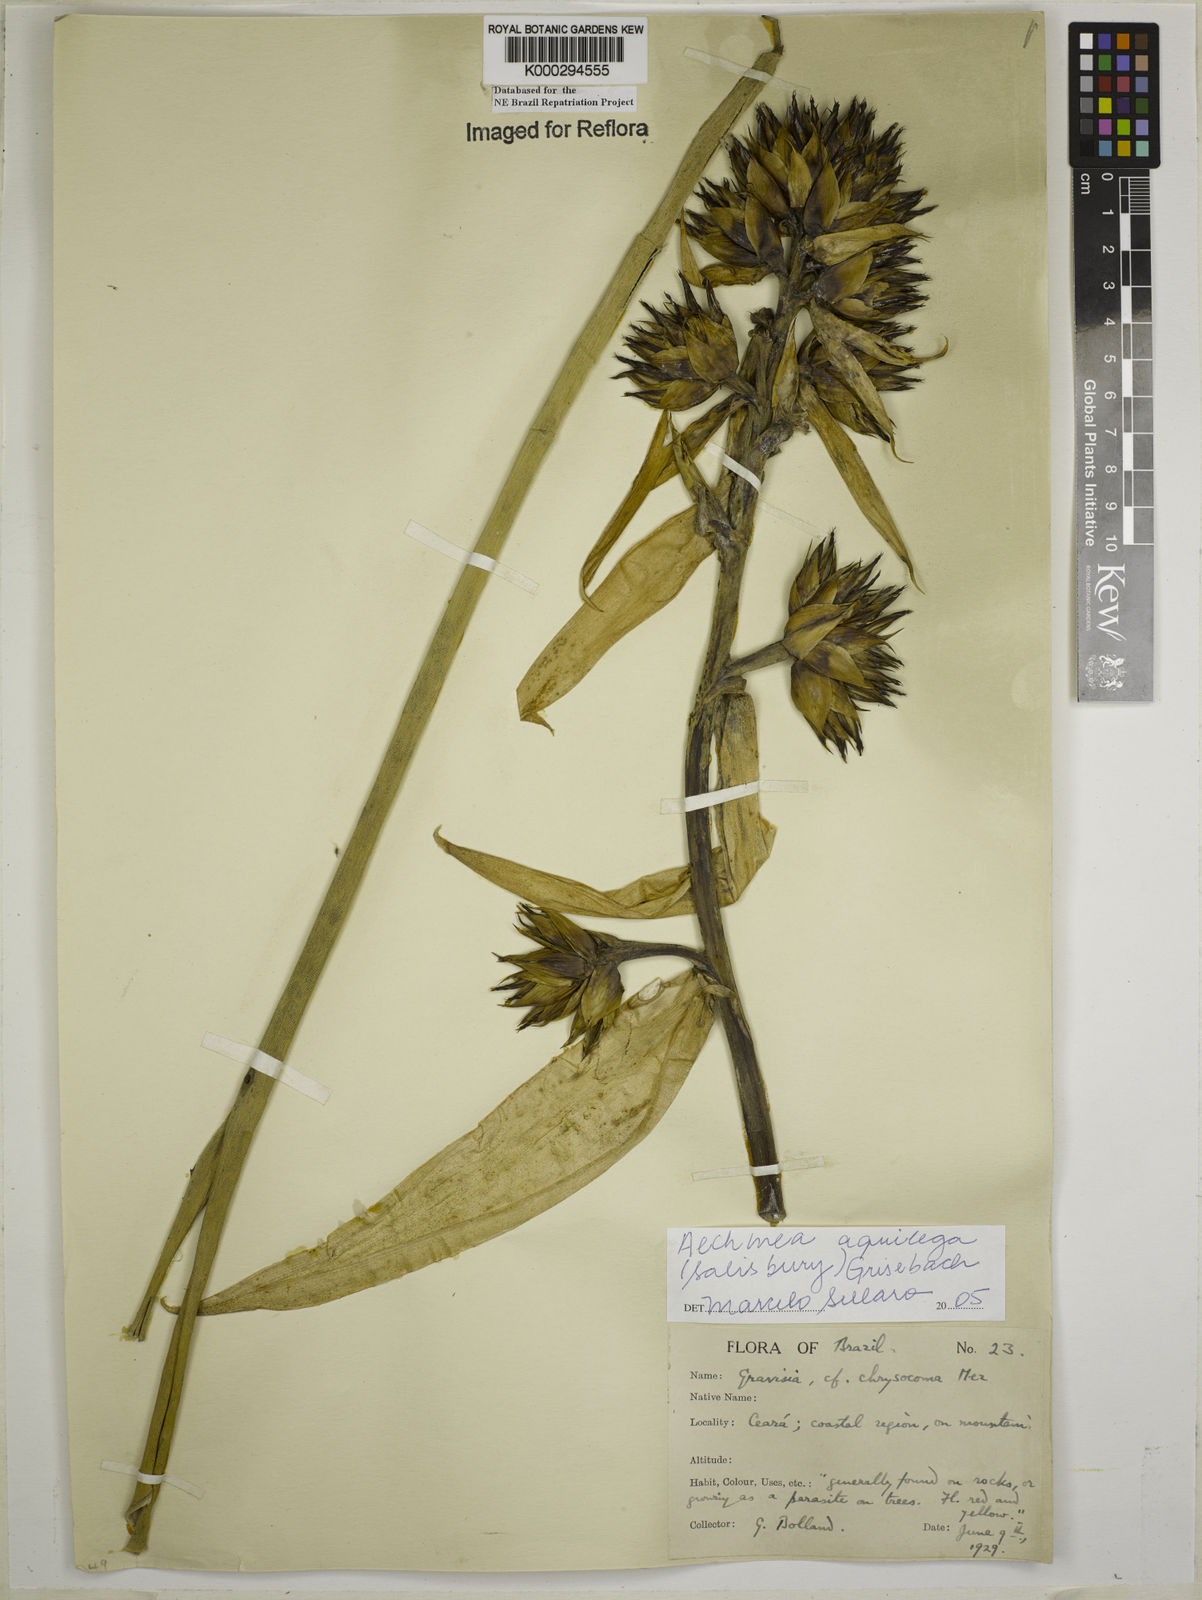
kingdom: Plantae
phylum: Tracheophyta
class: Liliopsida
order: Poales
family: Bromeliaceae
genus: Aechmea
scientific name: Aechmea aquilega
